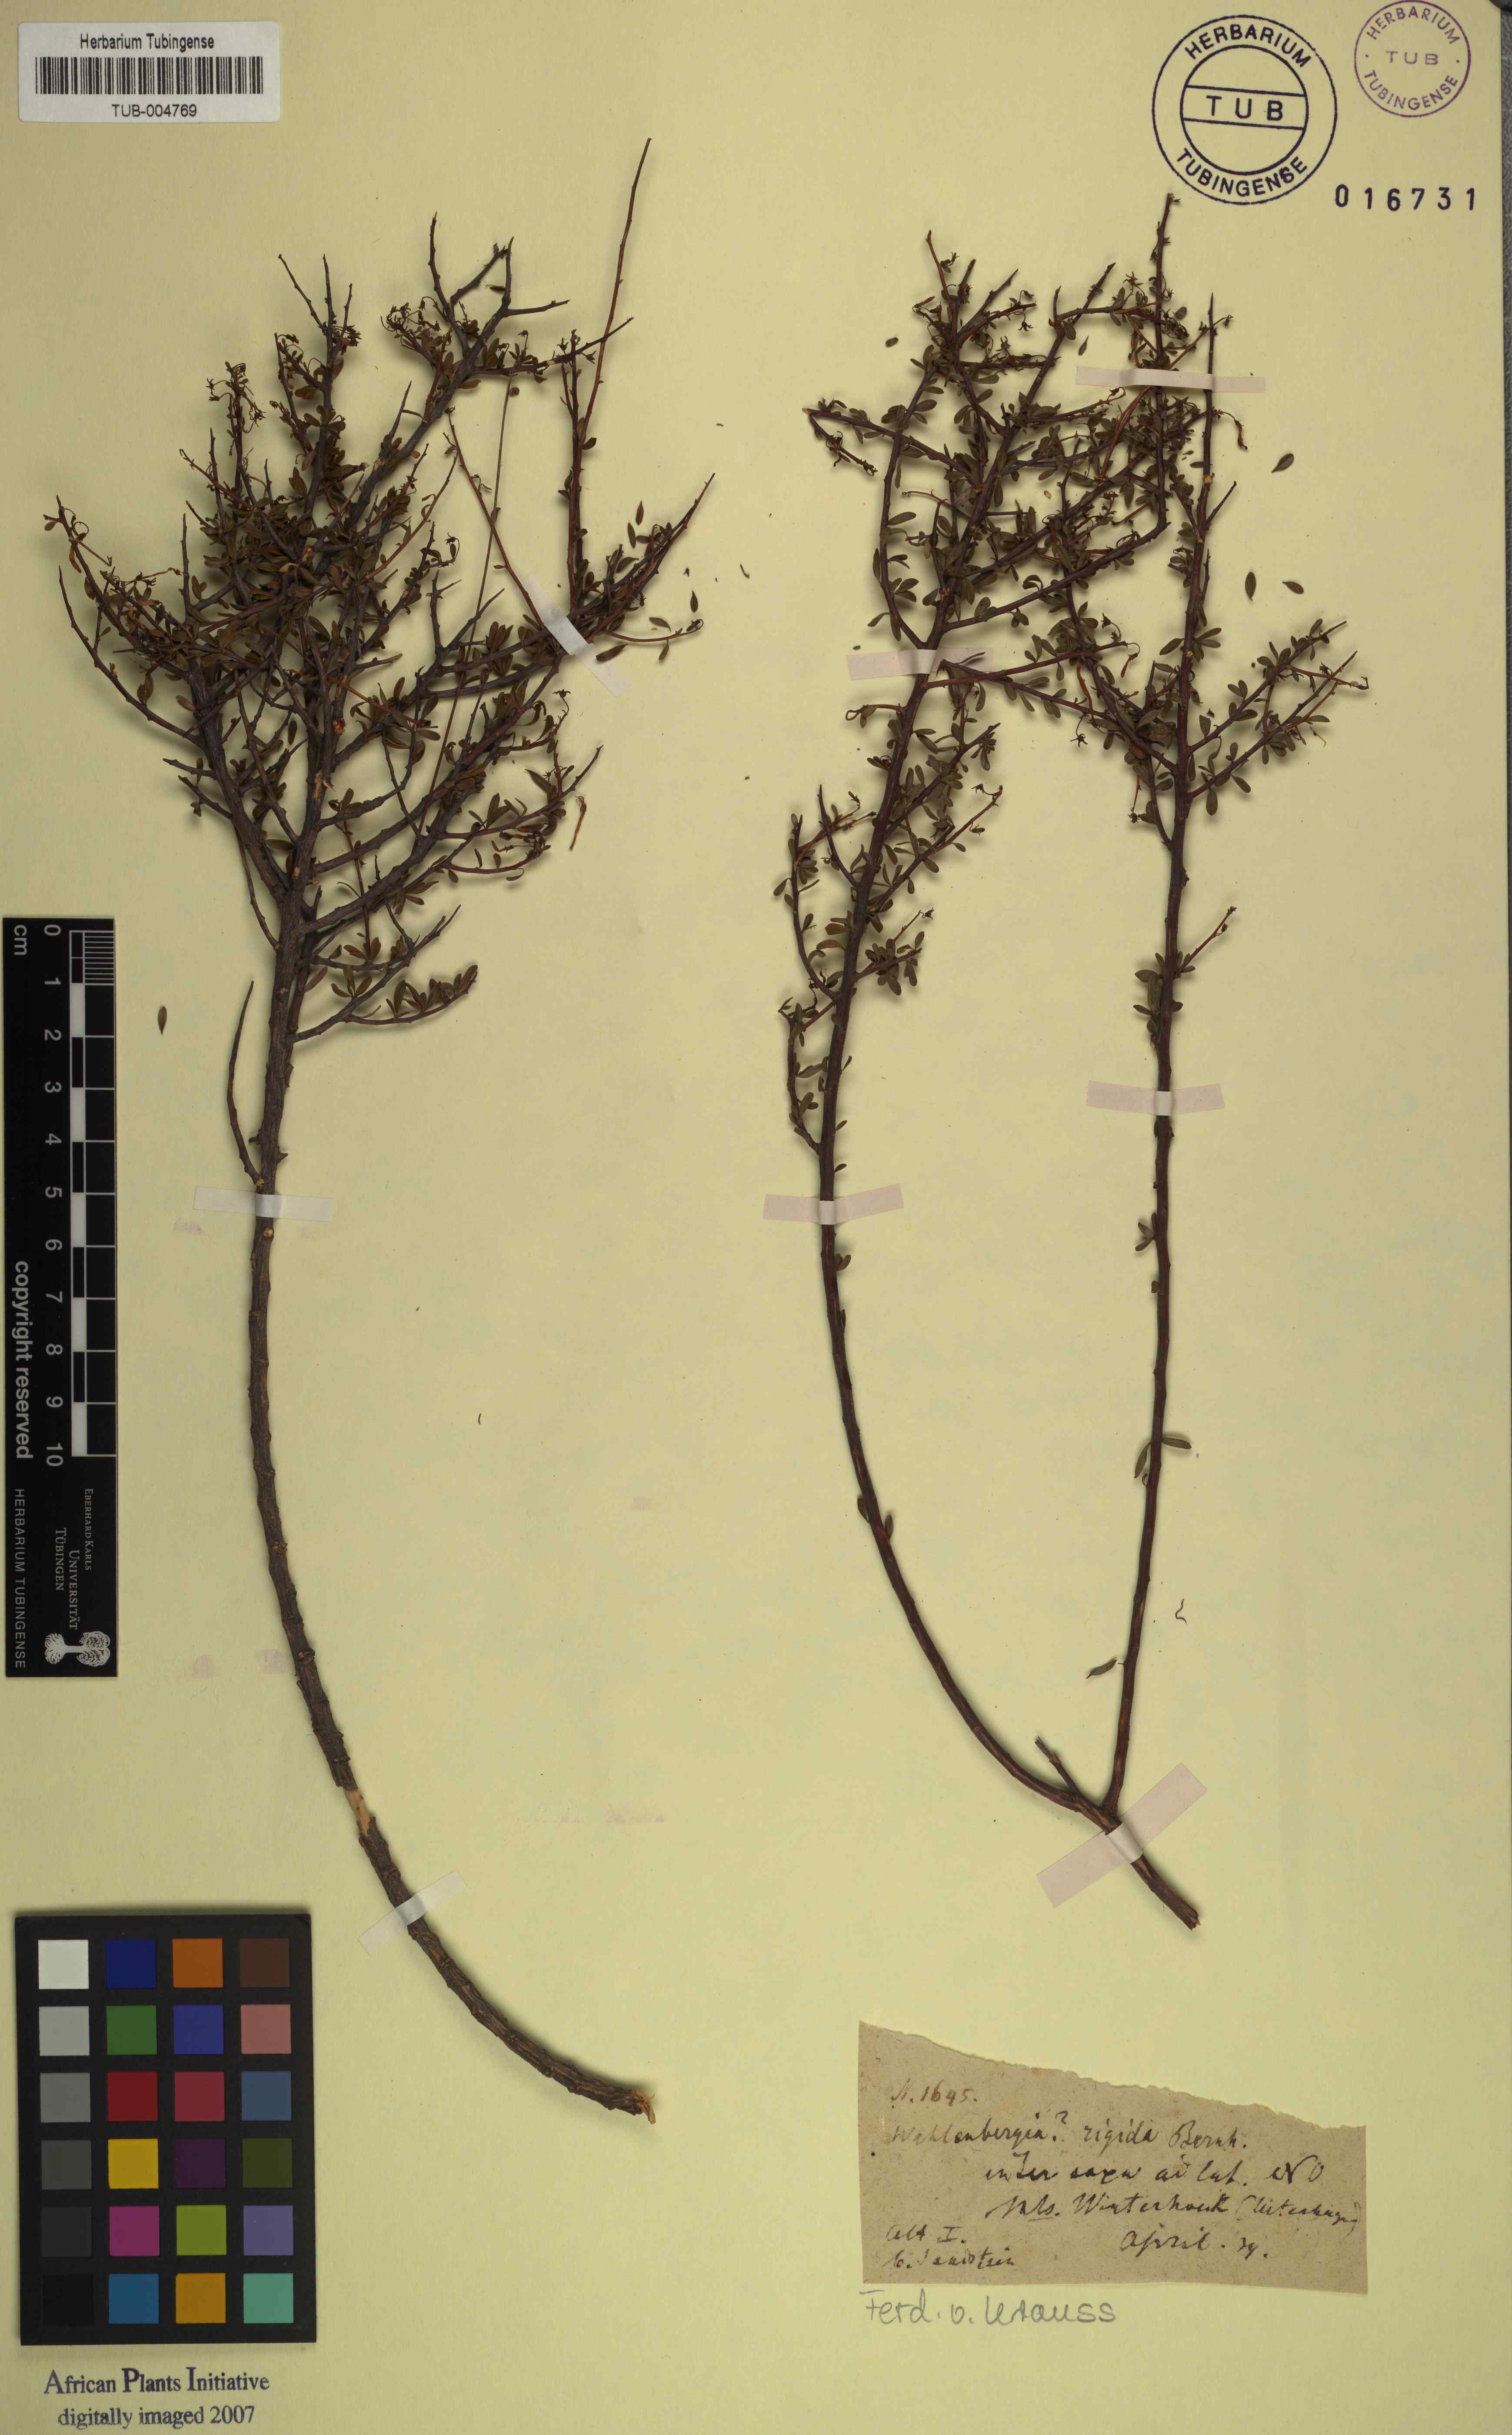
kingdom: Plantae
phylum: Tracheophyta
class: Magnoliopsida
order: Asterales
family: Campanulaceae
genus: Theilera
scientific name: Theilera robusta
